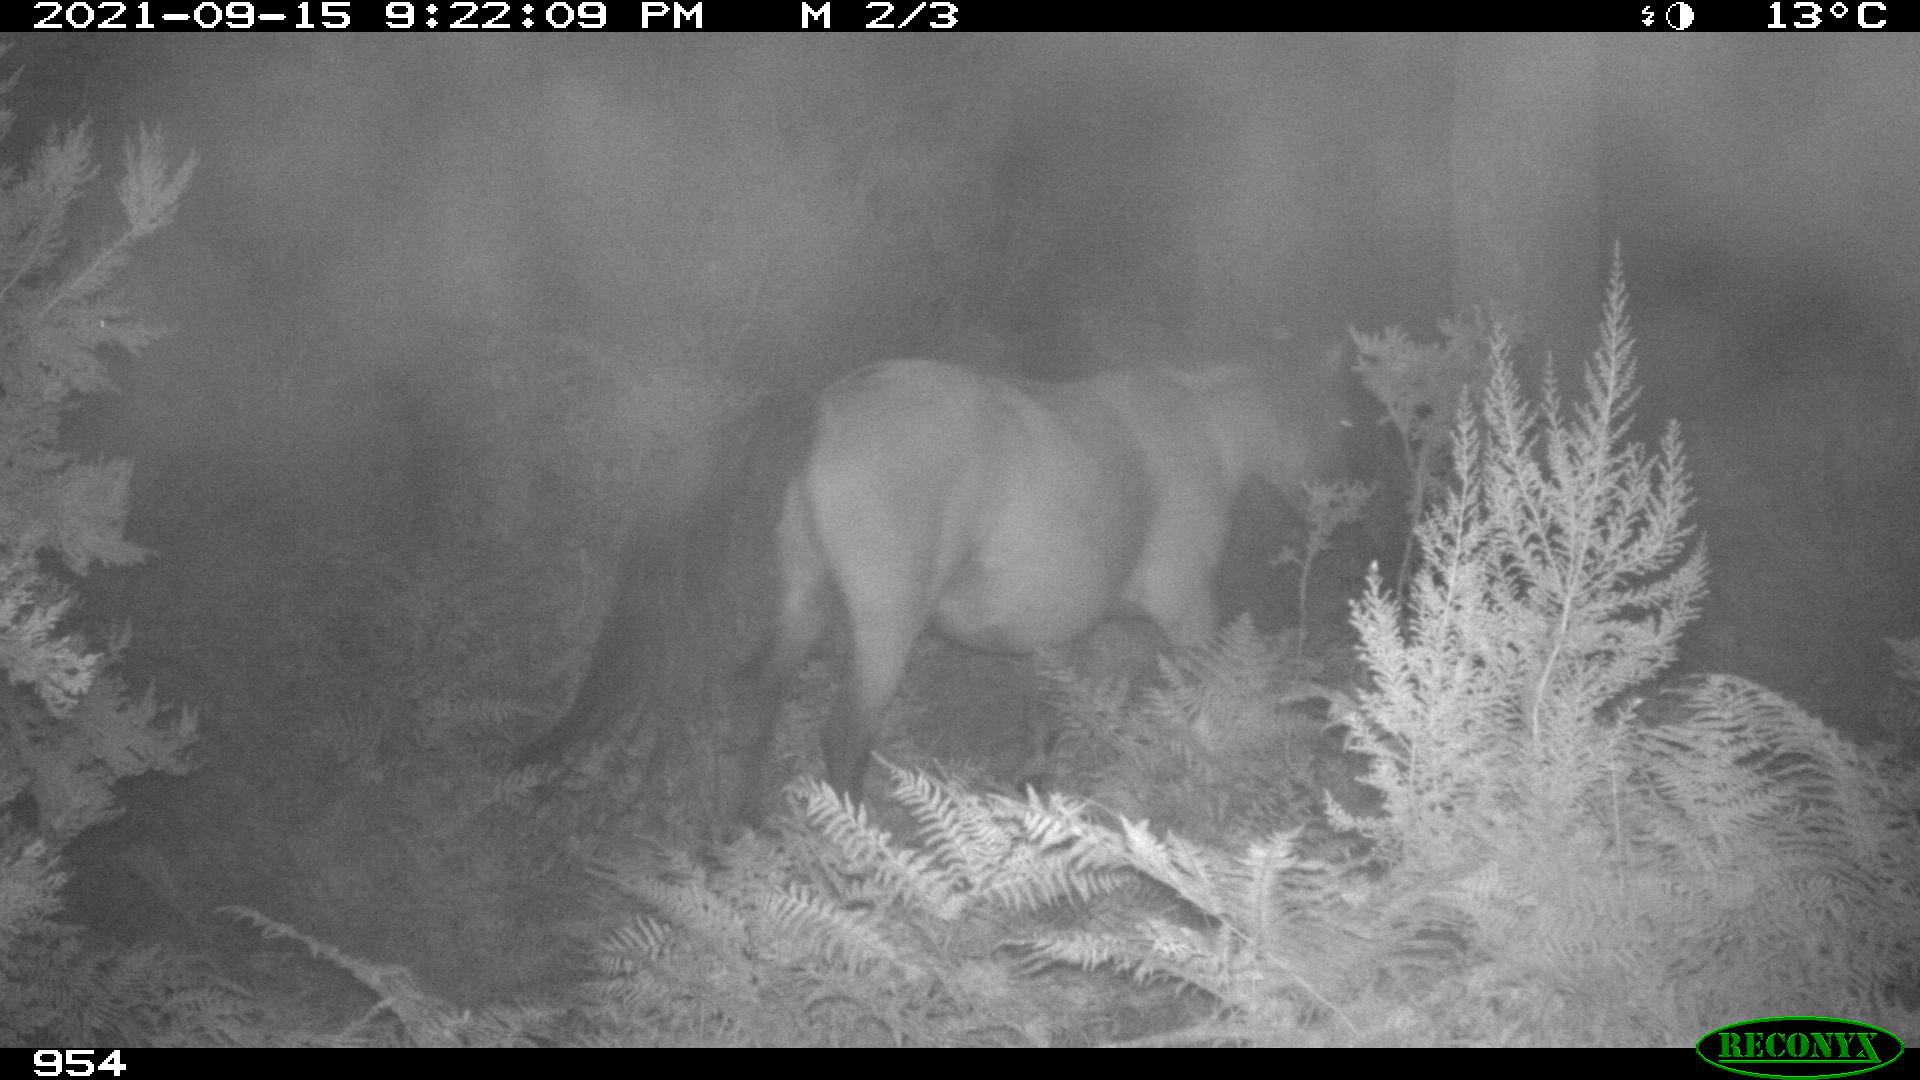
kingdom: Animalia
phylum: Chordata
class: Mammalia
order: Perissodactyla
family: Equidae
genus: Equus
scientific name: Equus caballus
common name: Horse
